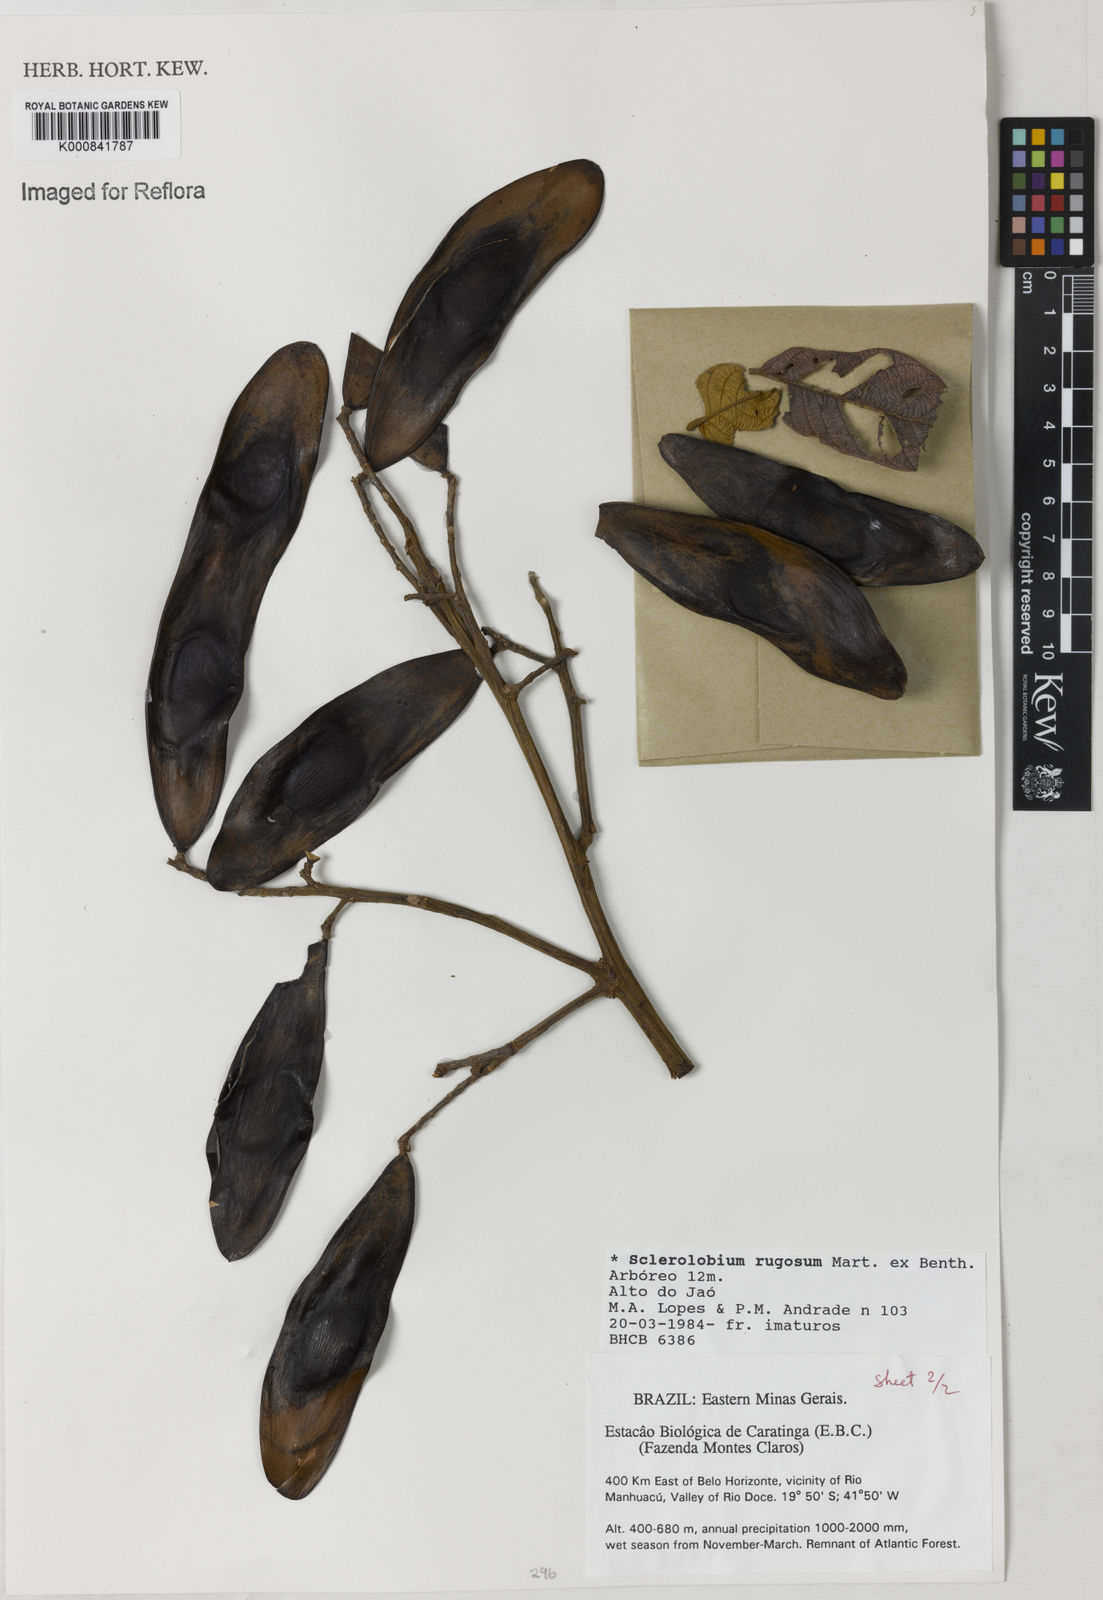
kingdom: Plantae
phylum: Tracheophyta
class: Magnoliopsida
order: Fabales
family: Fabaceae
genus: Tachigali
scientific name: Tachigali rugosa
